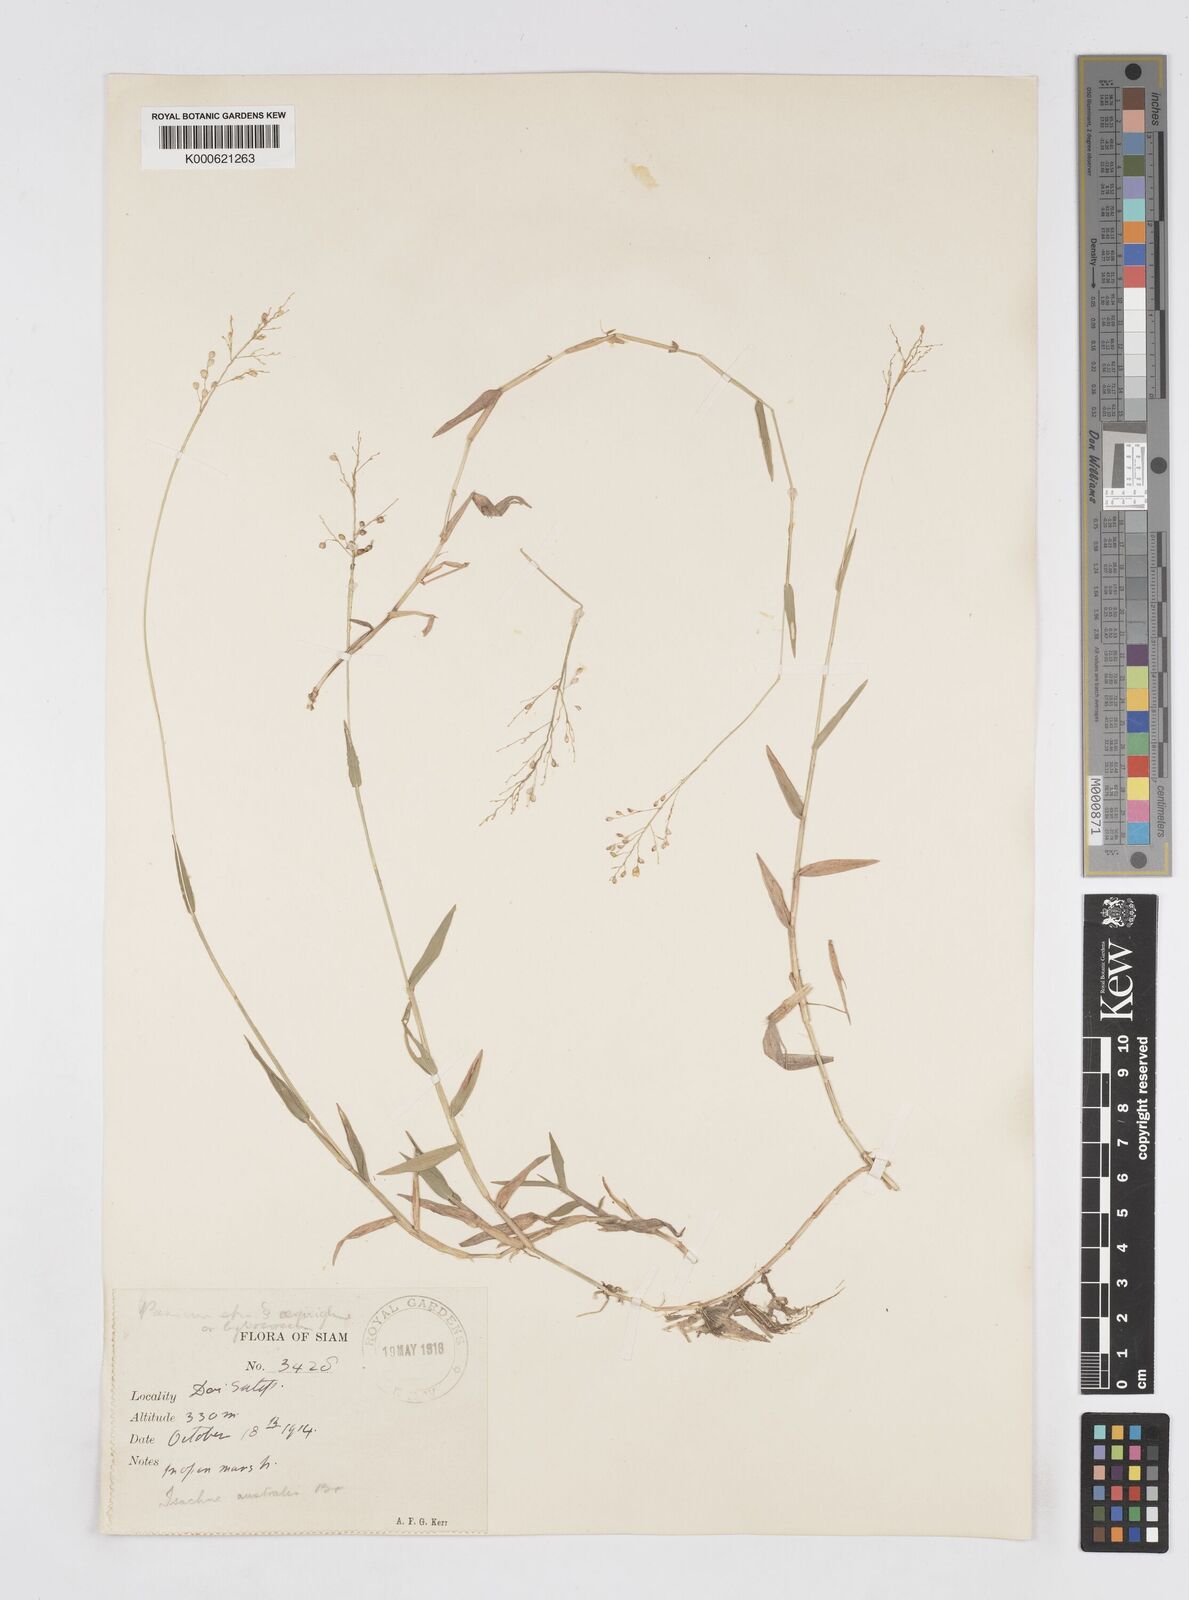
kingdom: Plantae
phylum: Tracheophyta
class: Liliopsida
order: Poales
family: Poaceae
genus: Isachne
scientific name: Isachne globosa
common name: Swamp millet
